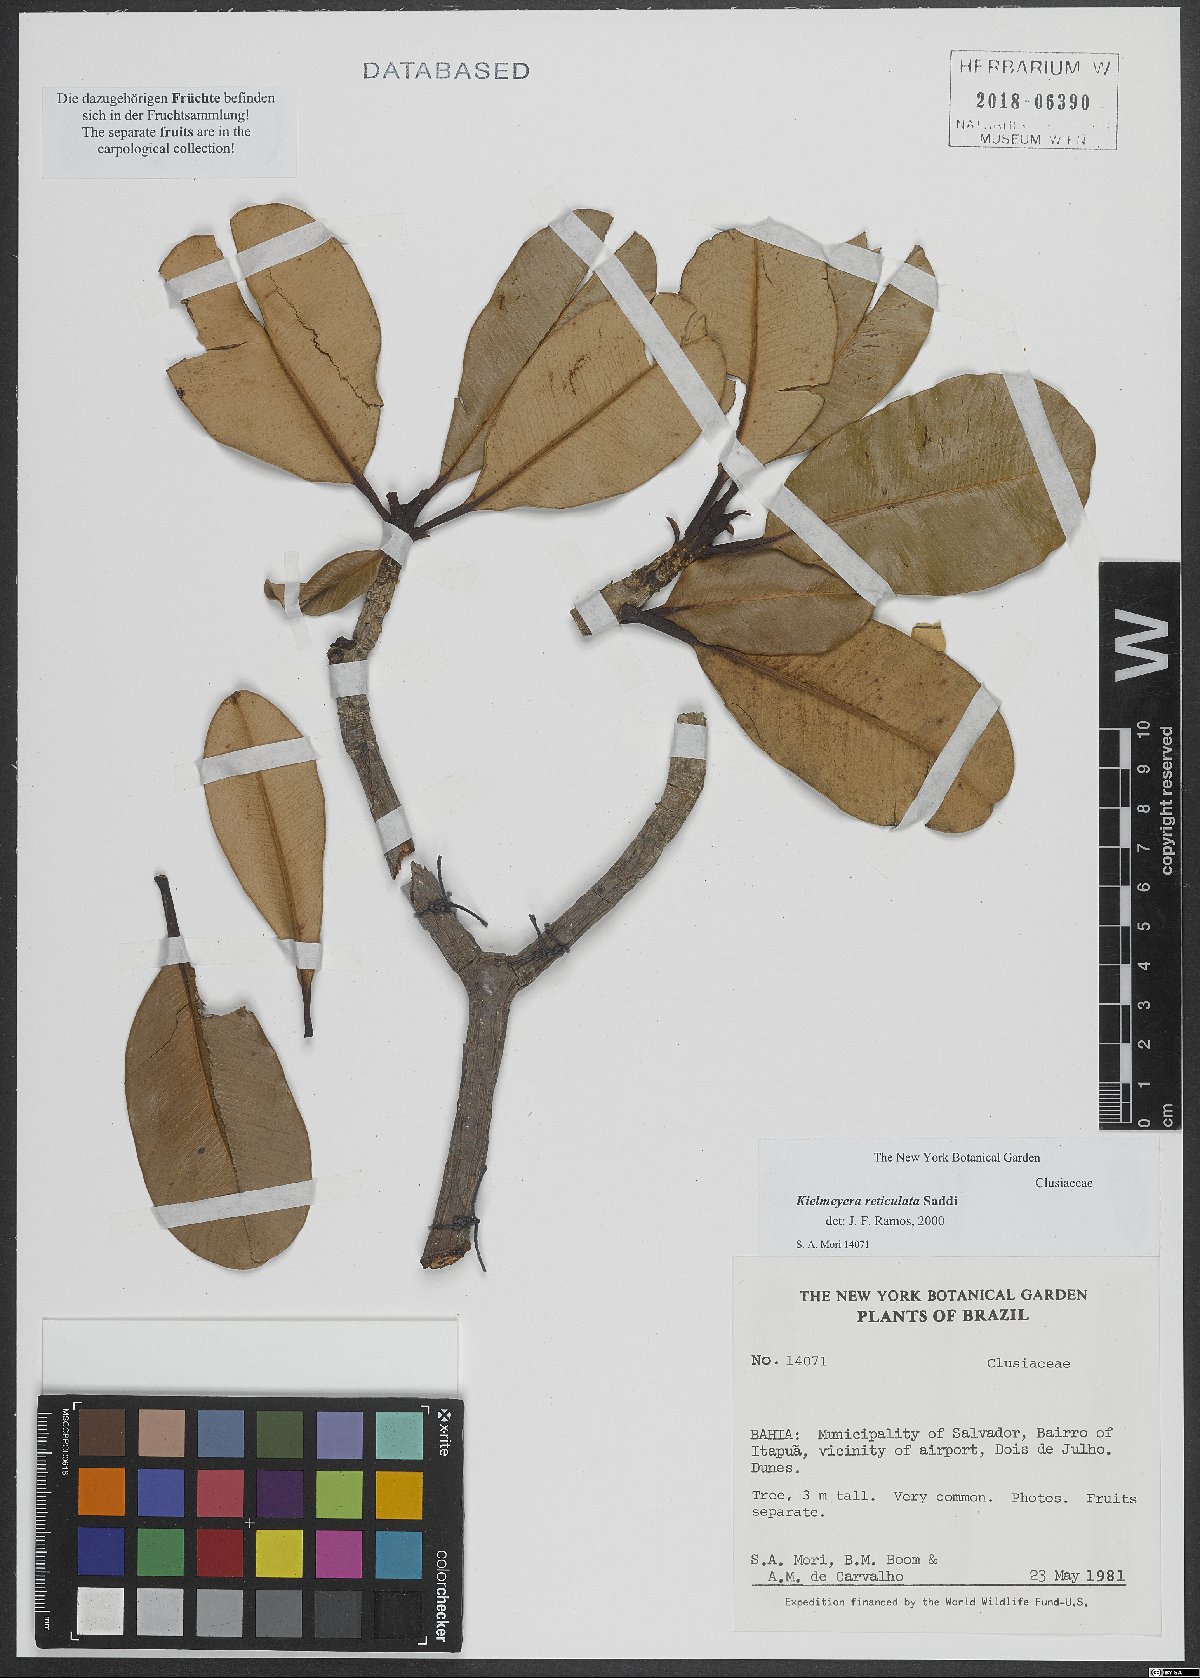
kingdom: Plantae
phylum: Tracheophyta
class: Magnoliopsida
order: Malpighiales
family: Calophyllaceae
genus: Kielmeyera
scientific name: Kielmeyera reticulata
